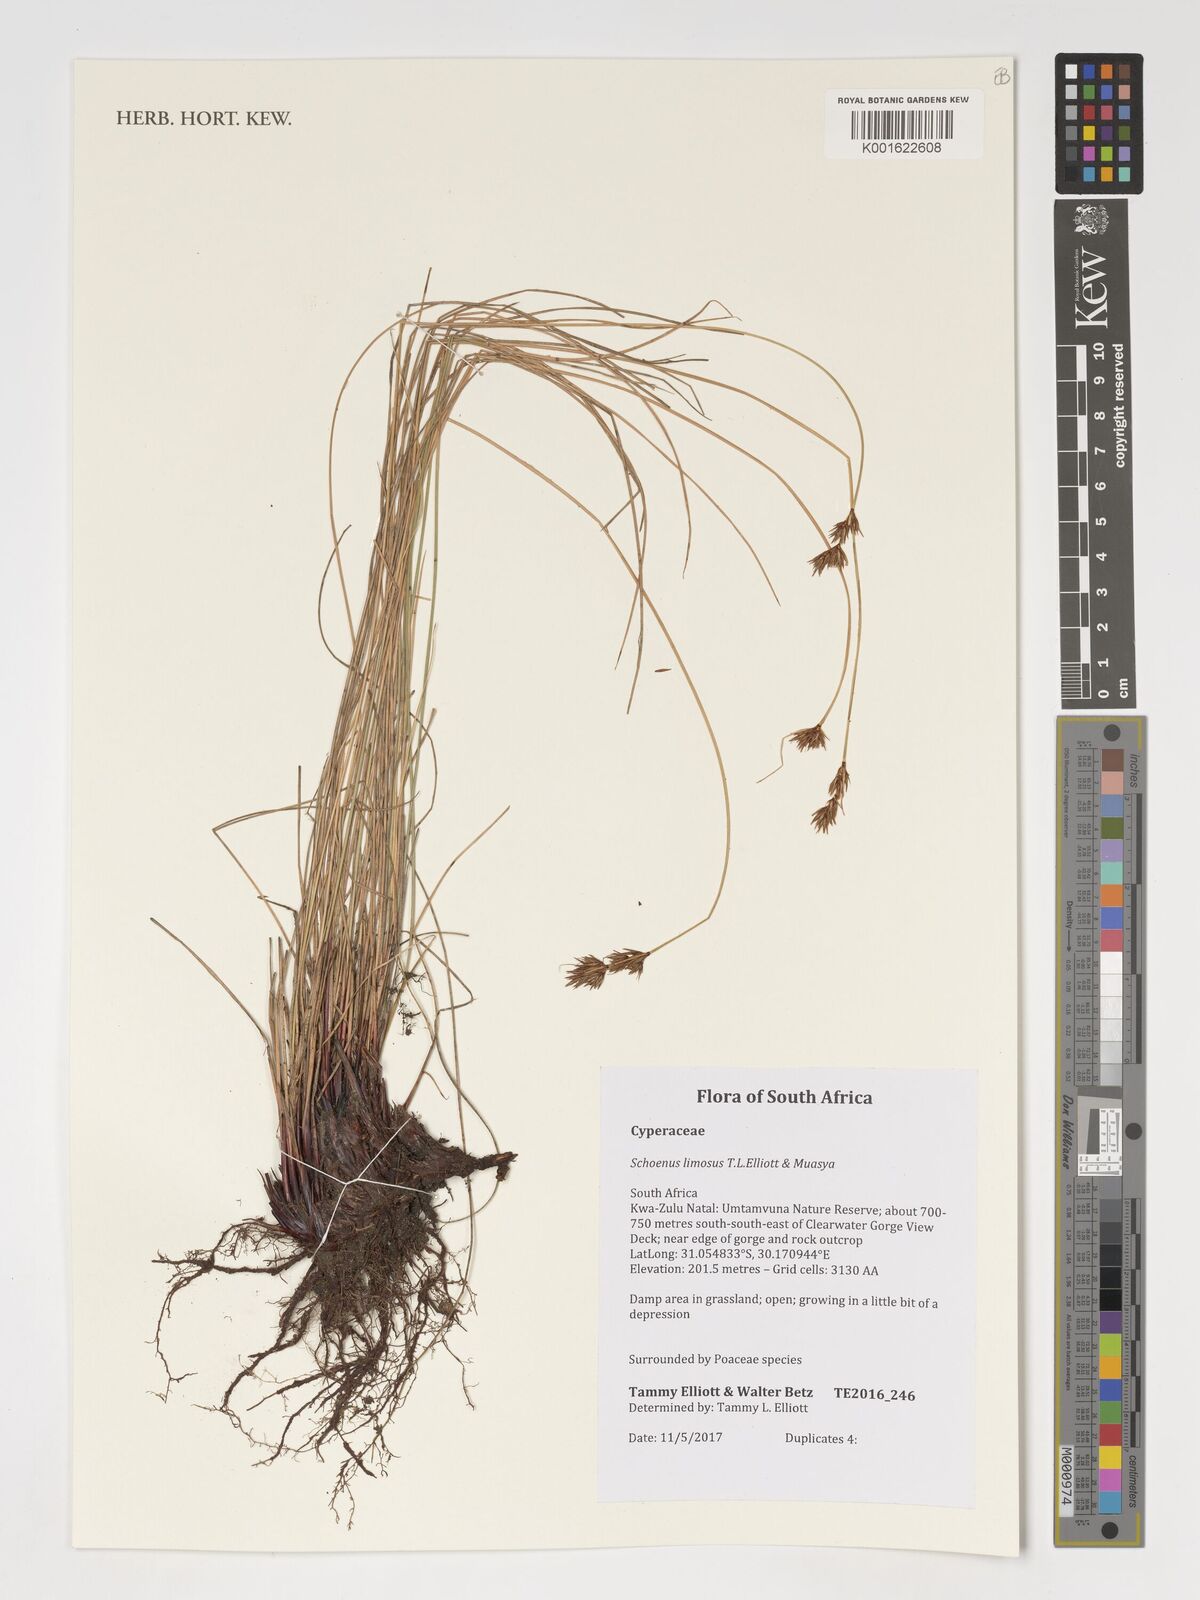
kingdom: Plantae
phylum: Tracheophyta
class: Liliopsida
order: Poales
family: Cyperaceae
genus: Schoenus
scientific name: Schoenus limosus
